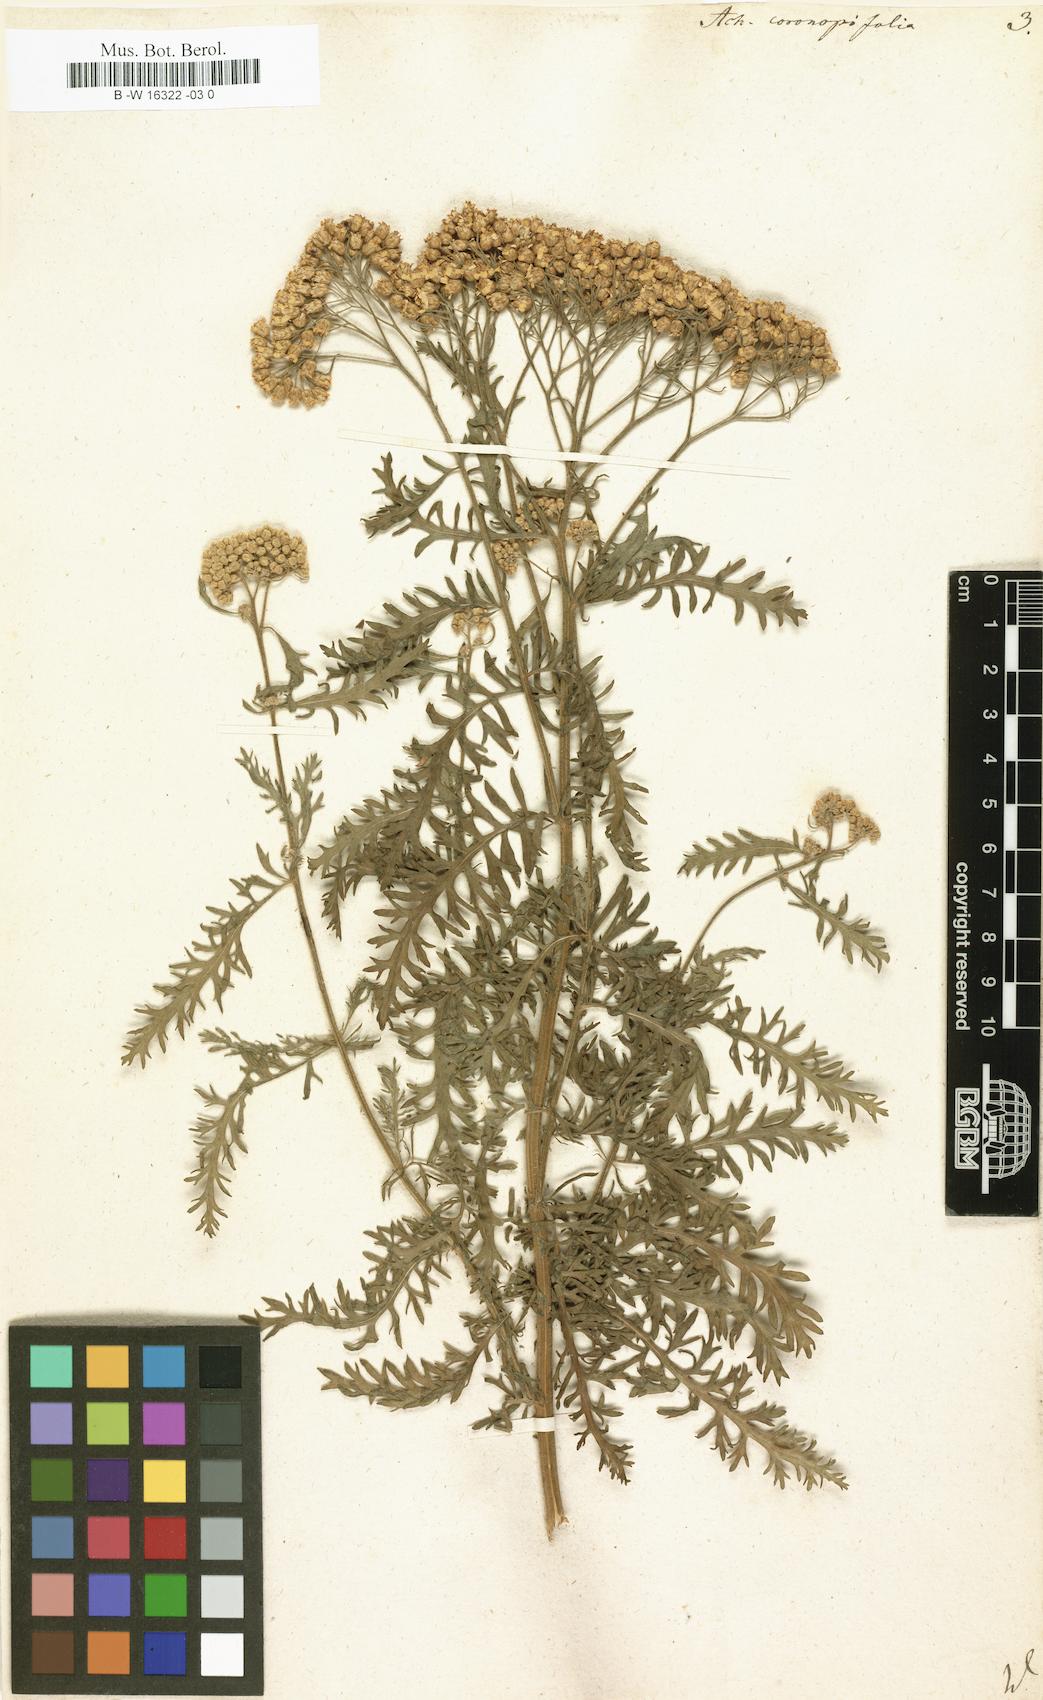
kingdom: Plantae
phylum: Tracheophyta
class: Magnoliopsida
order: Asterales
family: Asteraceae
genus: Achillea
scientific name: Achillea millefolium
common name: Yarrow
